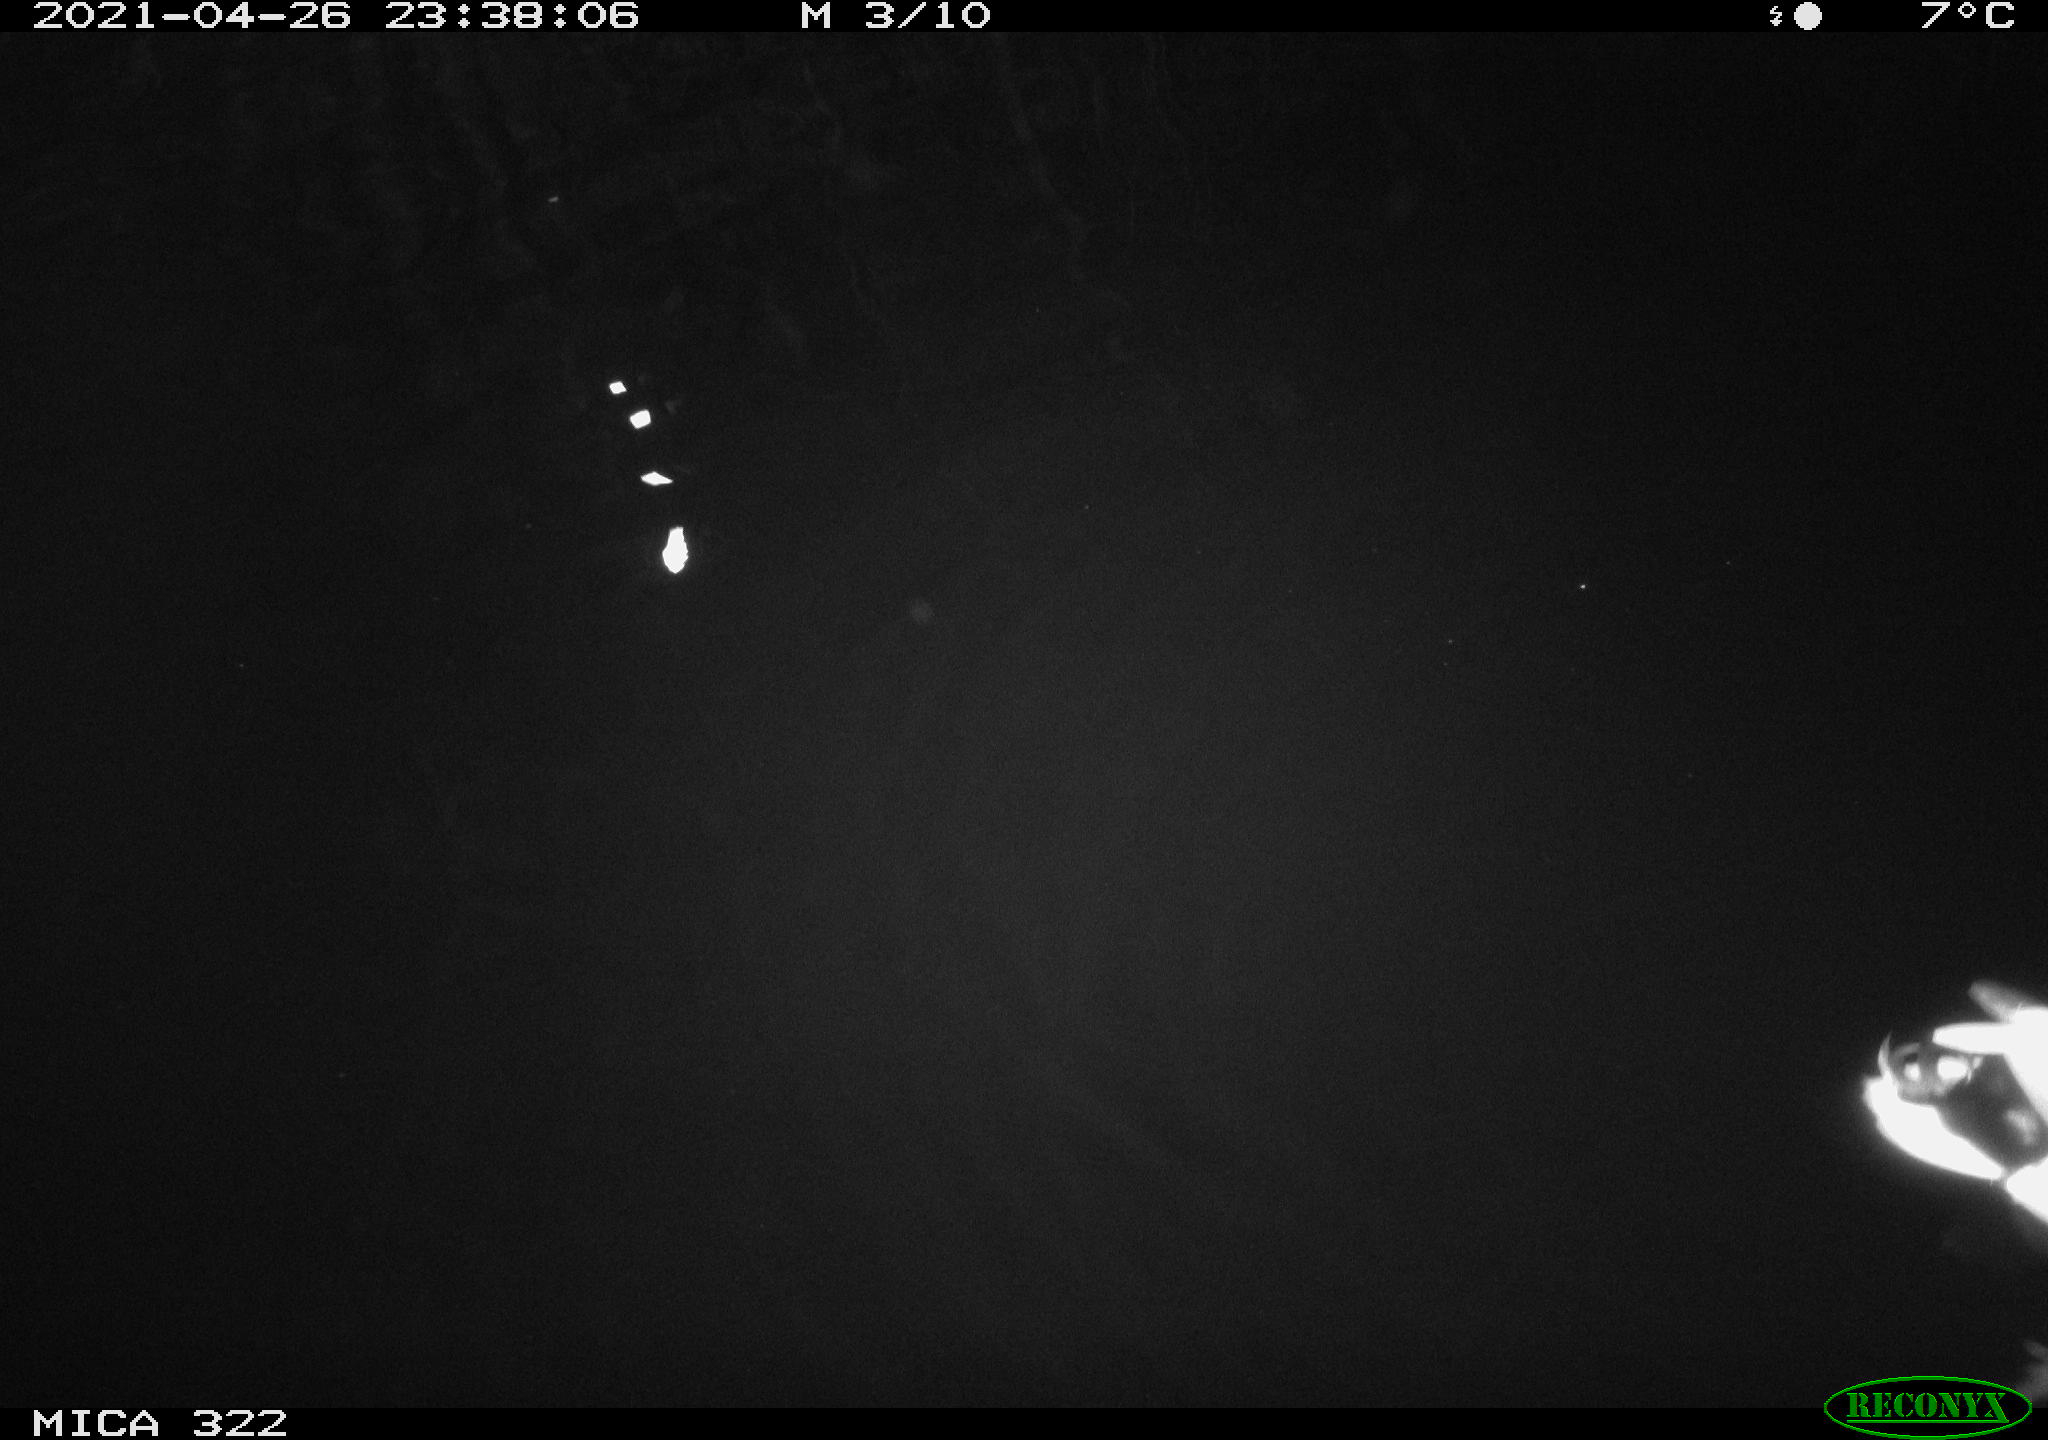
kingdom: Animalia
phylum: Chordata
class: Aves
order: Anseriformes
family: Anatidae
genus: Anas
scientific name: Anas platyrhynchos
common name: Mallard
